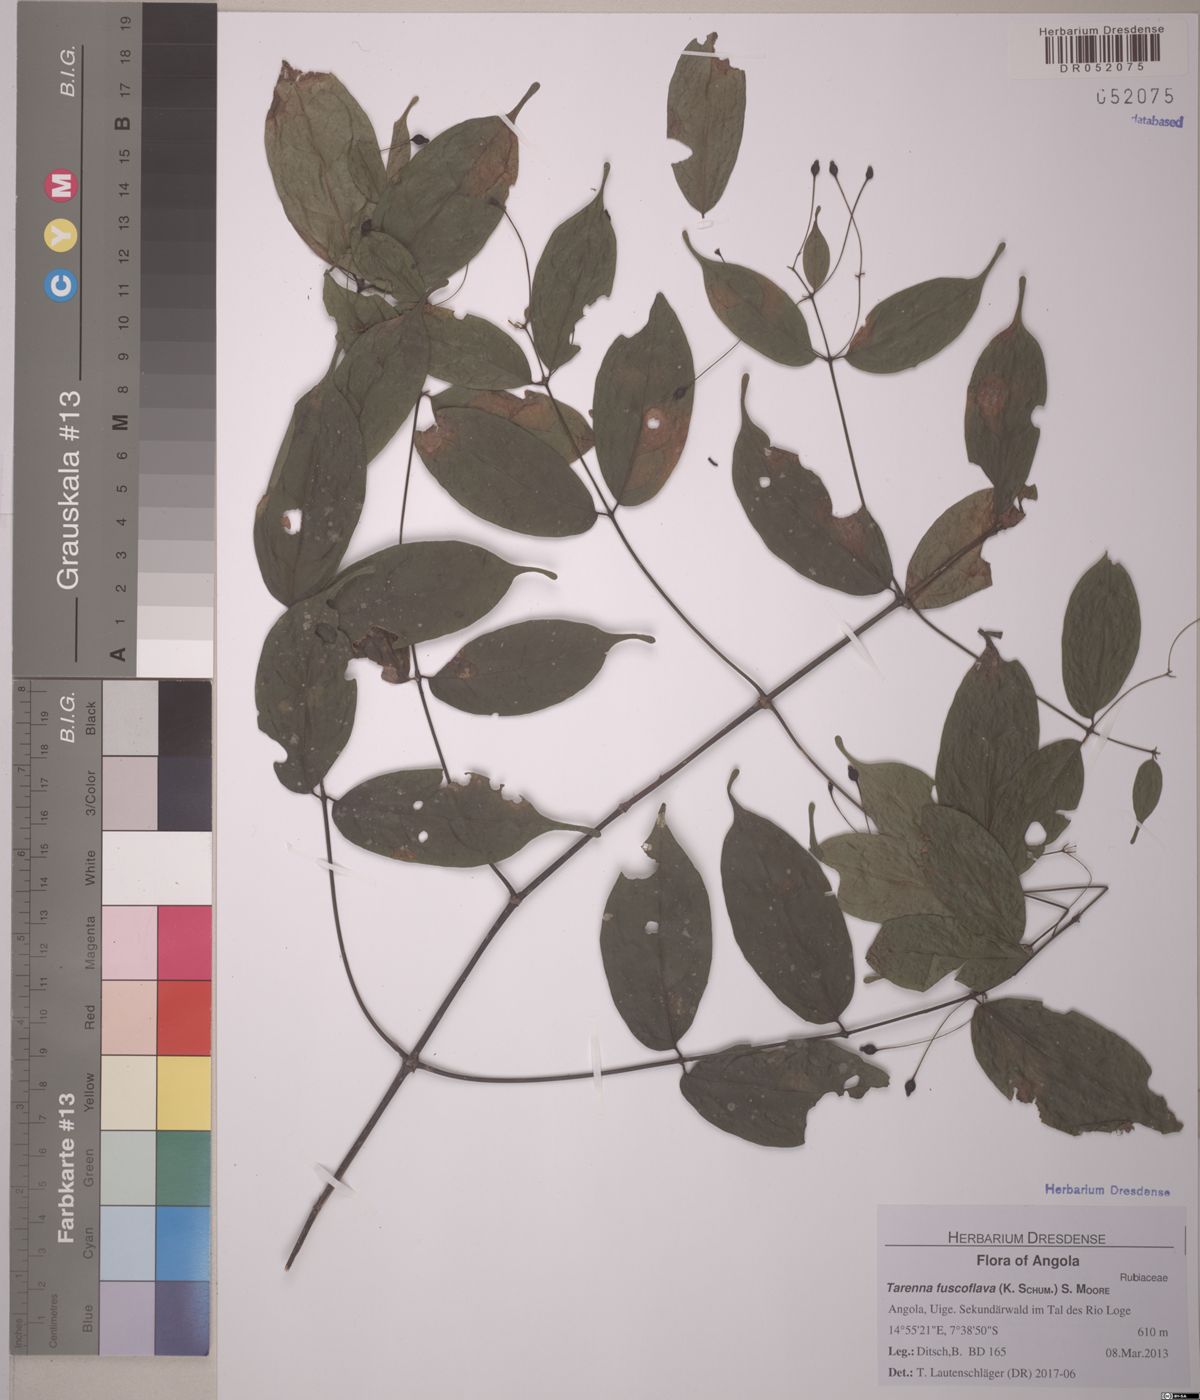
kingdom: Plantae
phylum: Tracheophyta
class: Magnoliopsida
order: Gentianales
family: Rubiaceae
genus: Tarenna
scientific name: Tarenna fuscoflava
